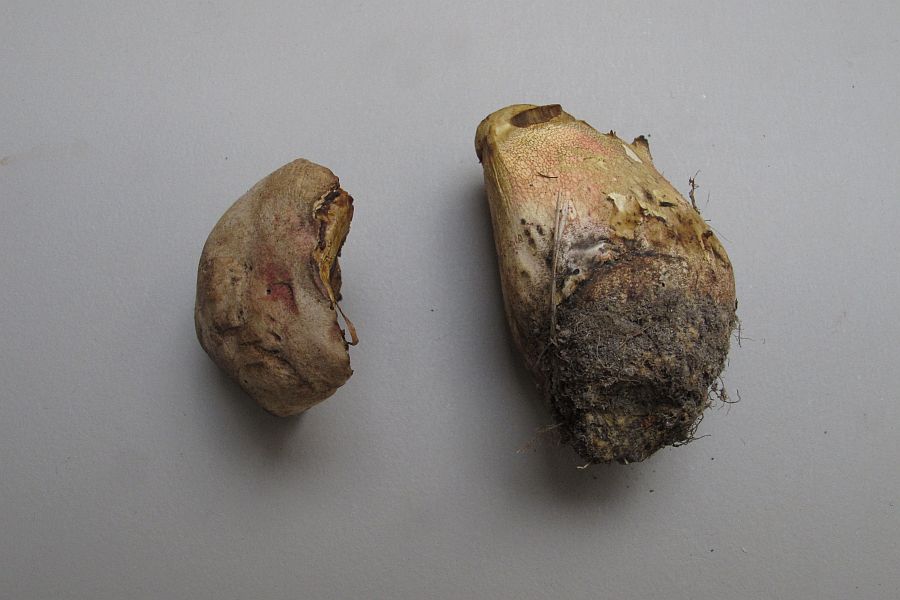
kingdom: Fungi
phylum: Basidiomycota
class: Agaricomycetes
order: Boletales
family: Boletaceae
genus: Rubroboletus
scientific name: Rubroboletus legaliae
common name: djævle-rørhat
